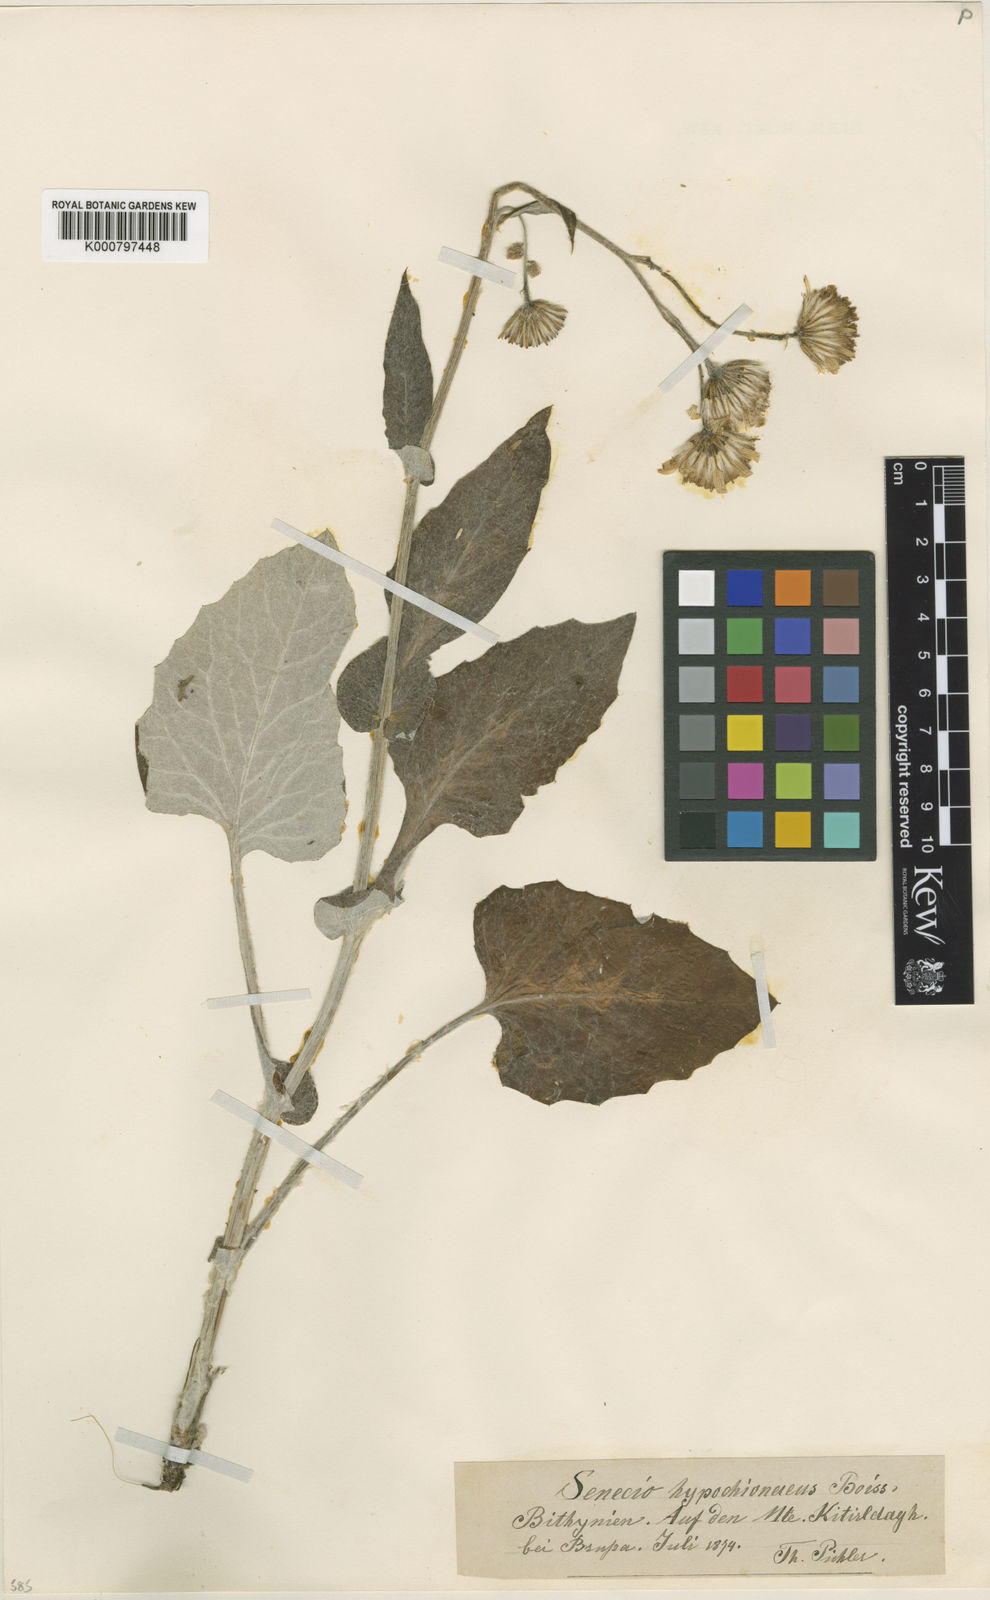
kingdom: Plantae
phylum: Tracheophyta
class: Magnoliopsida
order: Asterales
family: Asteraceae
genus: Turanecio
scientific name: Turanecio hypochionaeus
